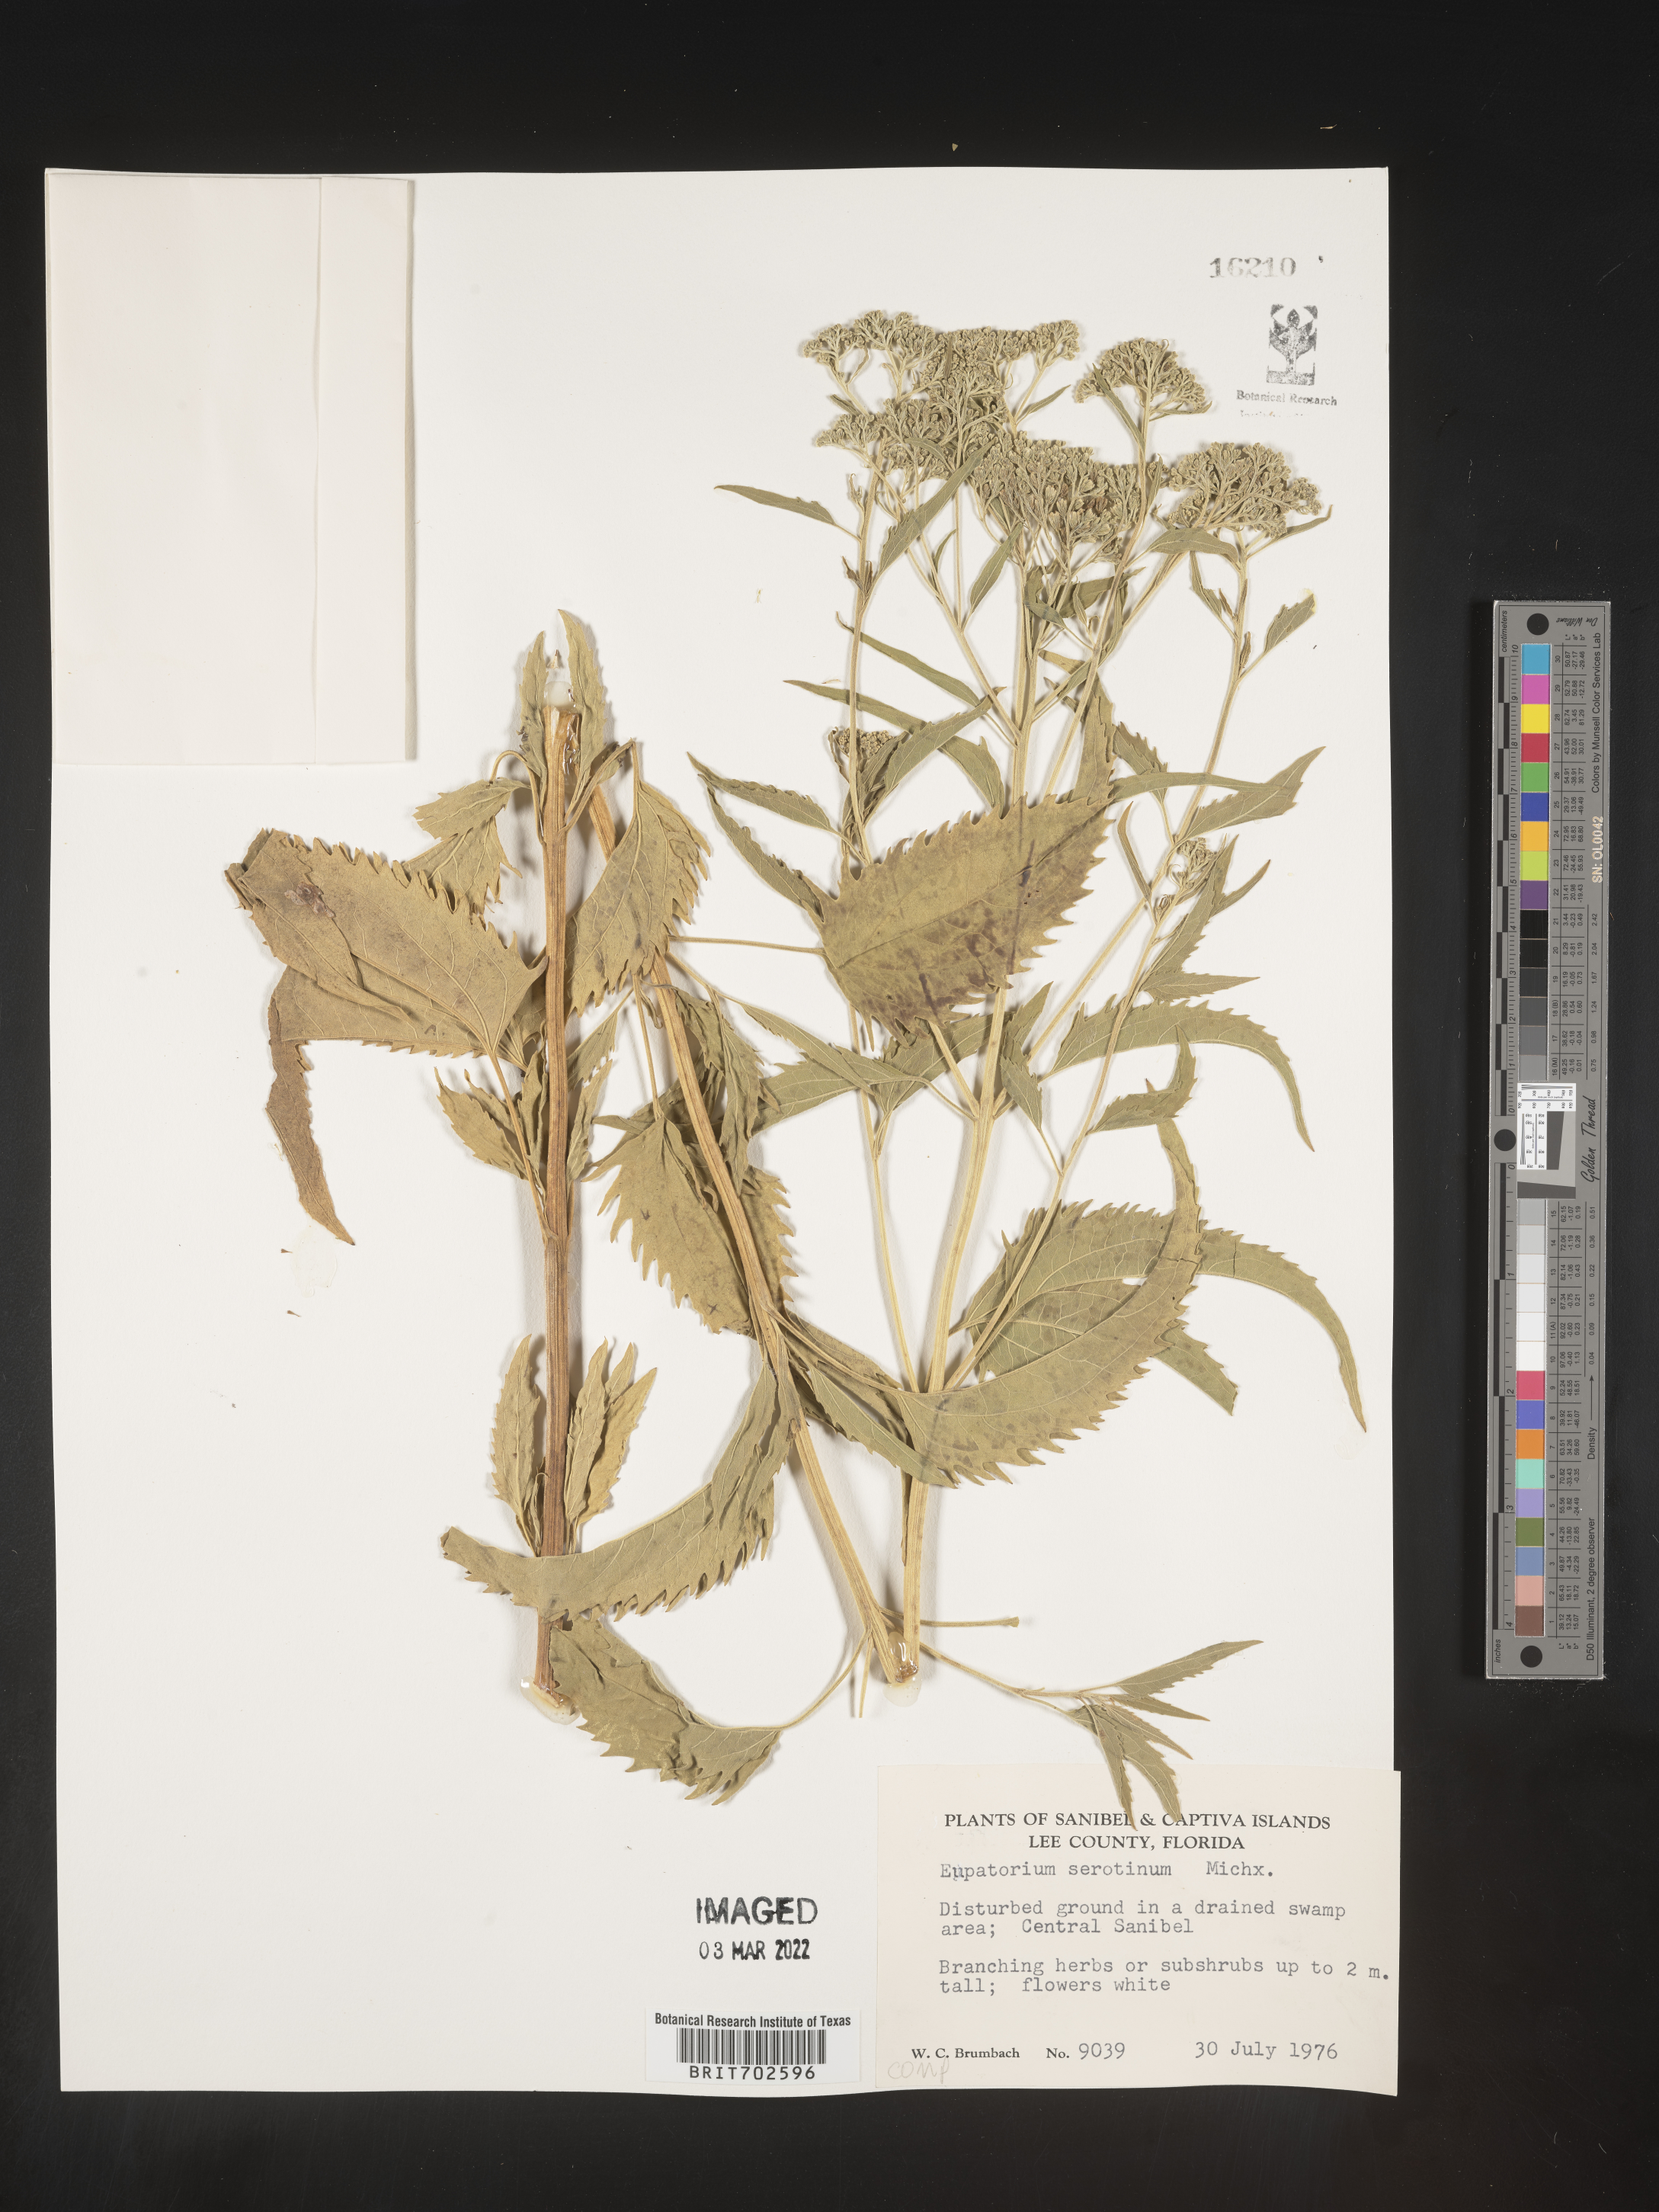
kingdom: Plantae
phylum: Tracheophyta
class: Magnoliopsida
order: Asterales
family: Asteraceae
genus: Eupatorium
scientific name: Eupatorium serotinum
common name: Late boneset
